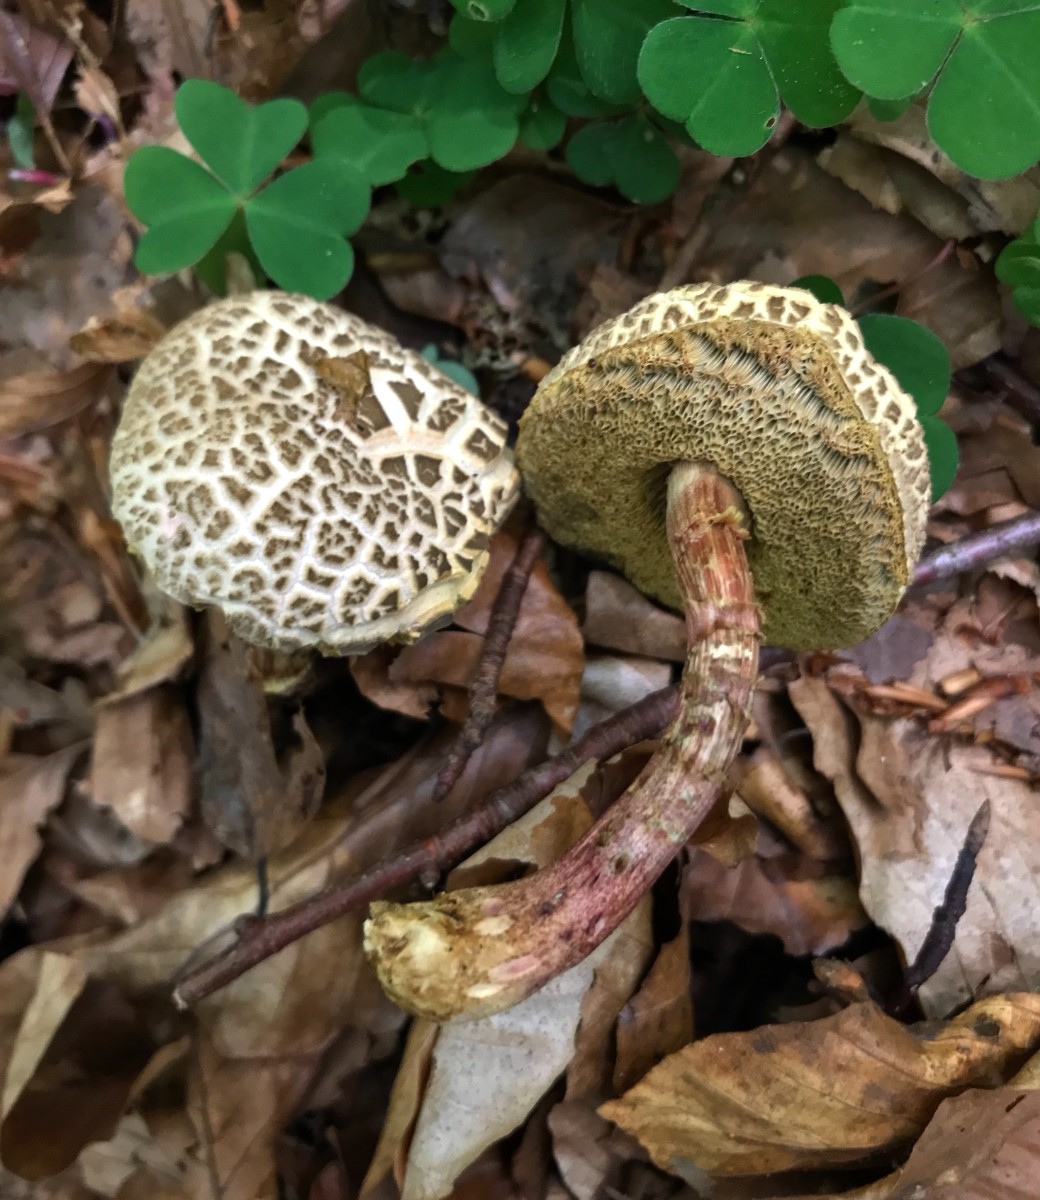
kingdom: Fungi
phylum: Basidiomycota
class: Agaricomycetes
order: Boletales
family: Boletaceae
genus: Xerocomellus
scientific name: Xerocomellus
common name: dværgrørhat
